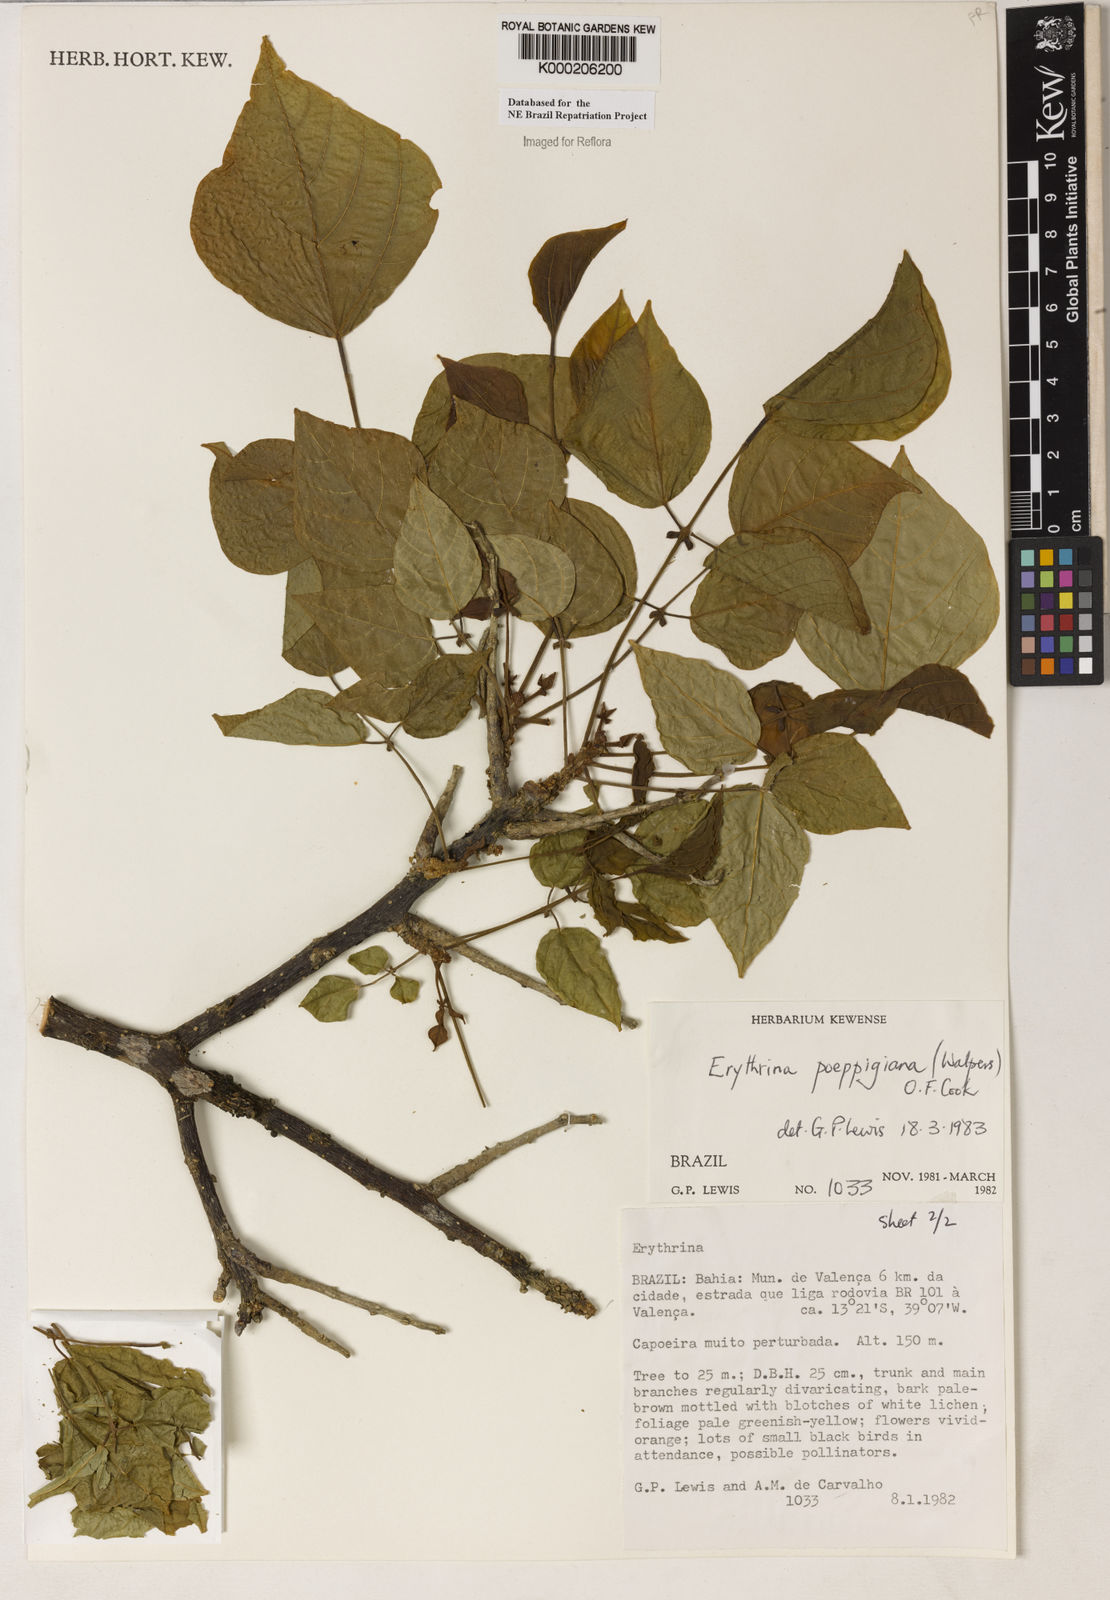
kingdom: Plantae
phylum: Tracheophyta
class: Magnoliopsida
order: Fabales
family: Fabaceae
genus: Erythrina
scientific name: Erythrina poeppigiana
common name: Coral tree
